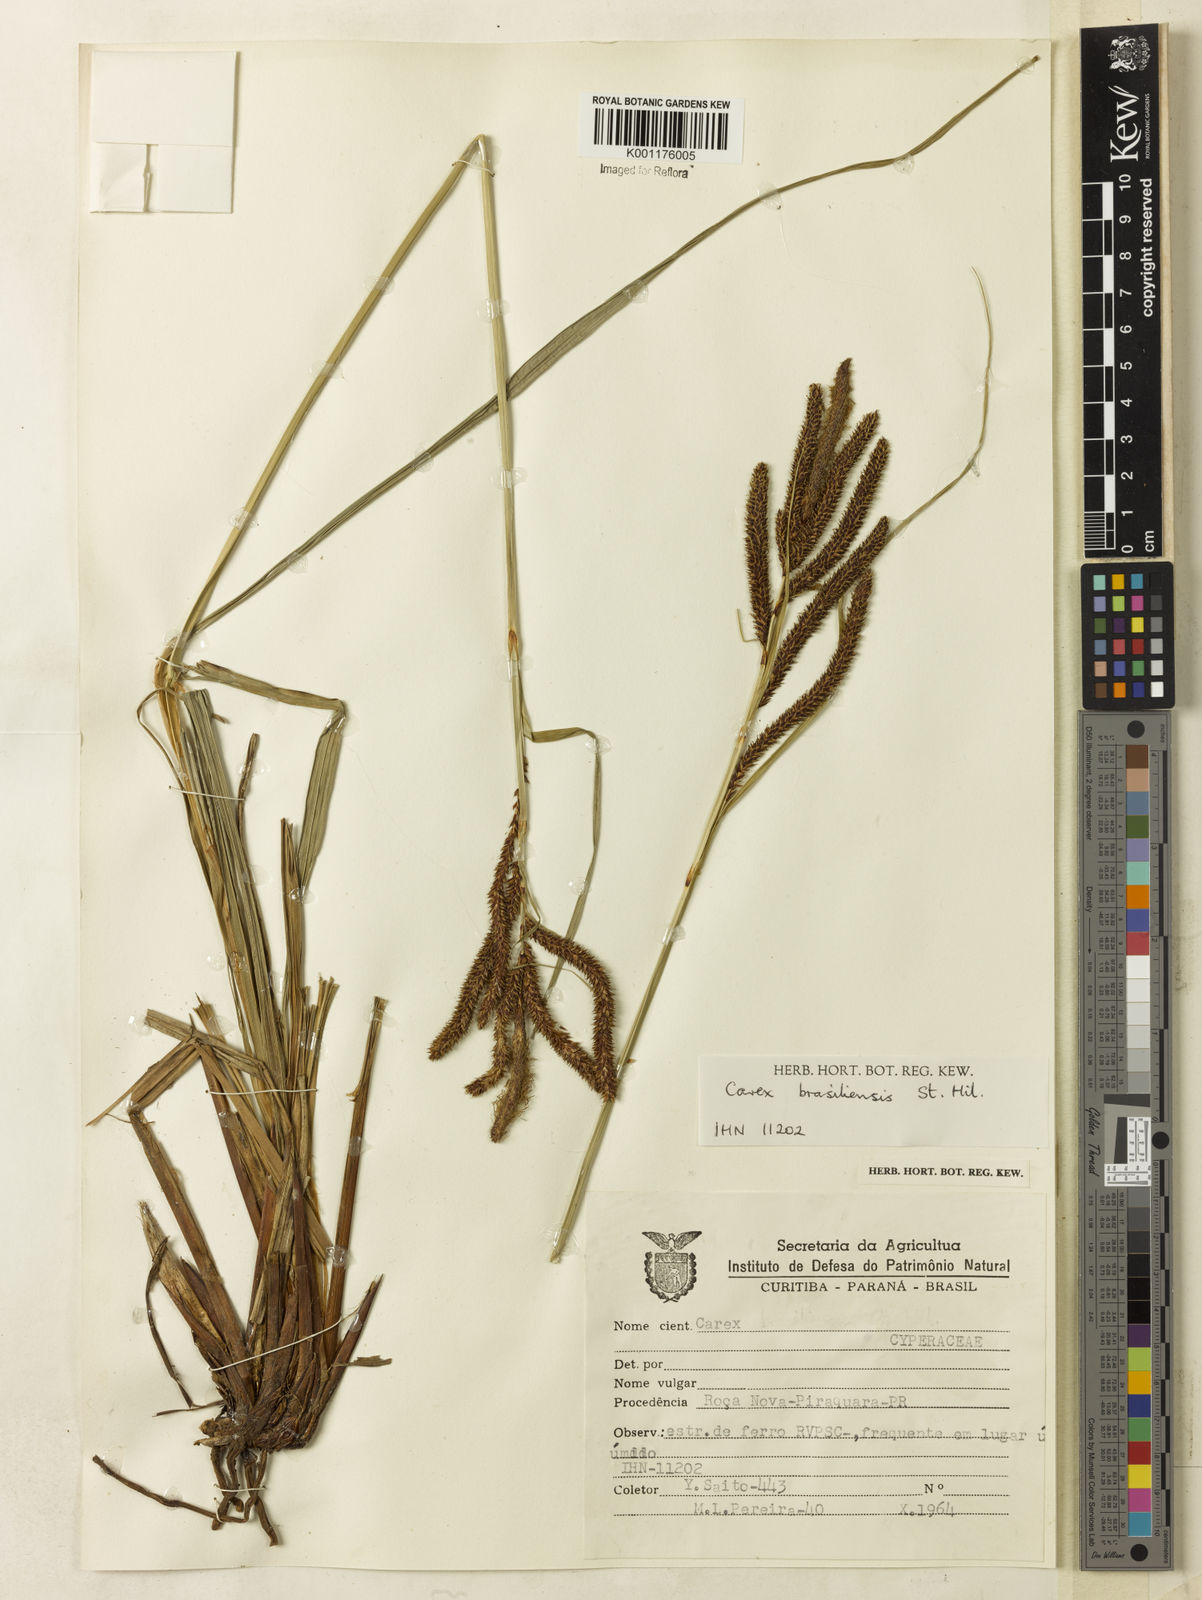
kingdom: Plantae
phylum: Tracheophyta
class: Liliopsida
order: Poales
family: Cyperaceae
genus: Carex
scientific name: Carex brasiliensis
